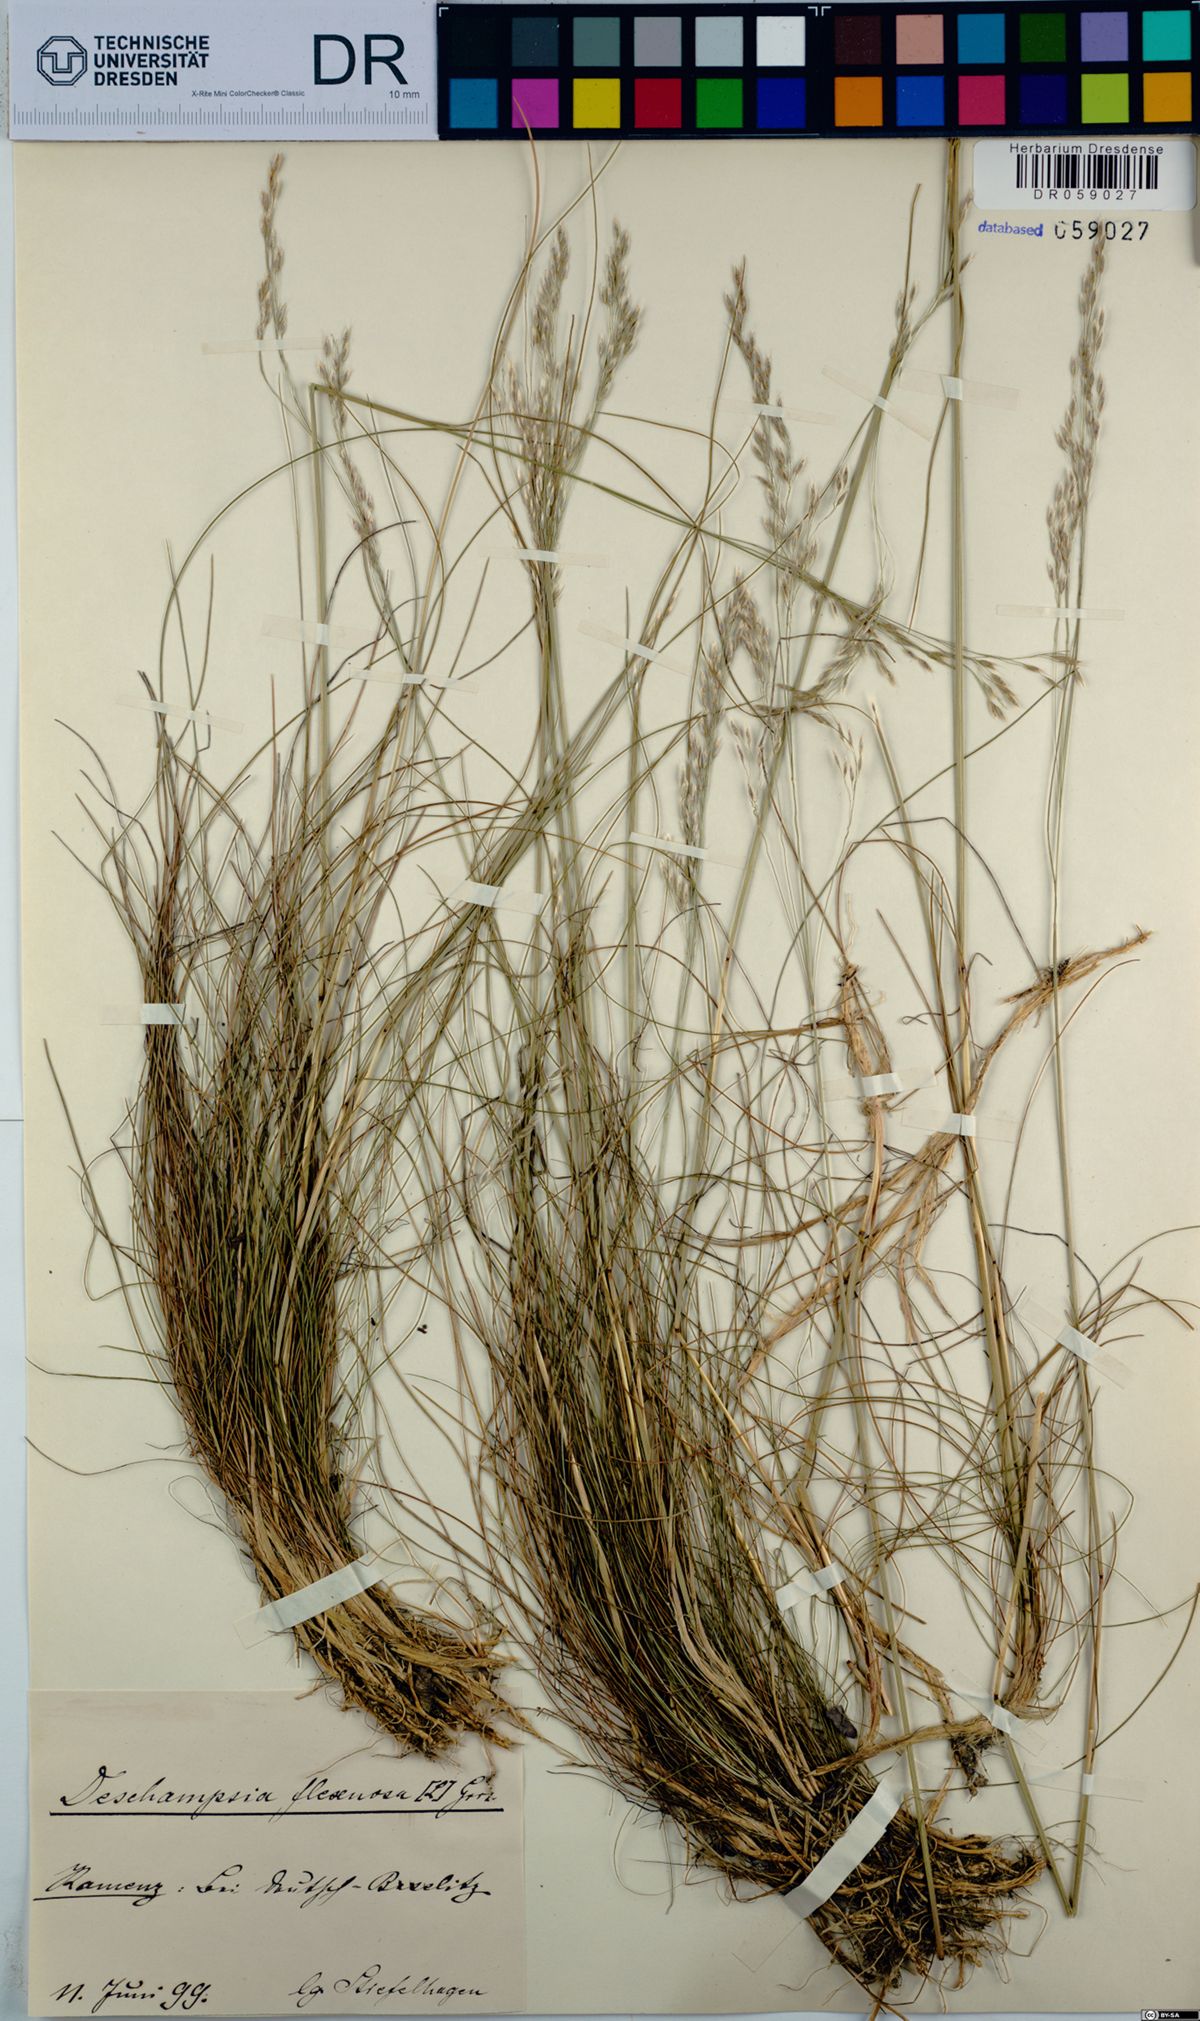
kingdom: Plantae
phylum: Tracheophyta
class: Liliopsida
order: Poales
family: Poaceae
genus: Avenella
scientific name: Avenella flexuosa
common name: Wavy hairgrass
